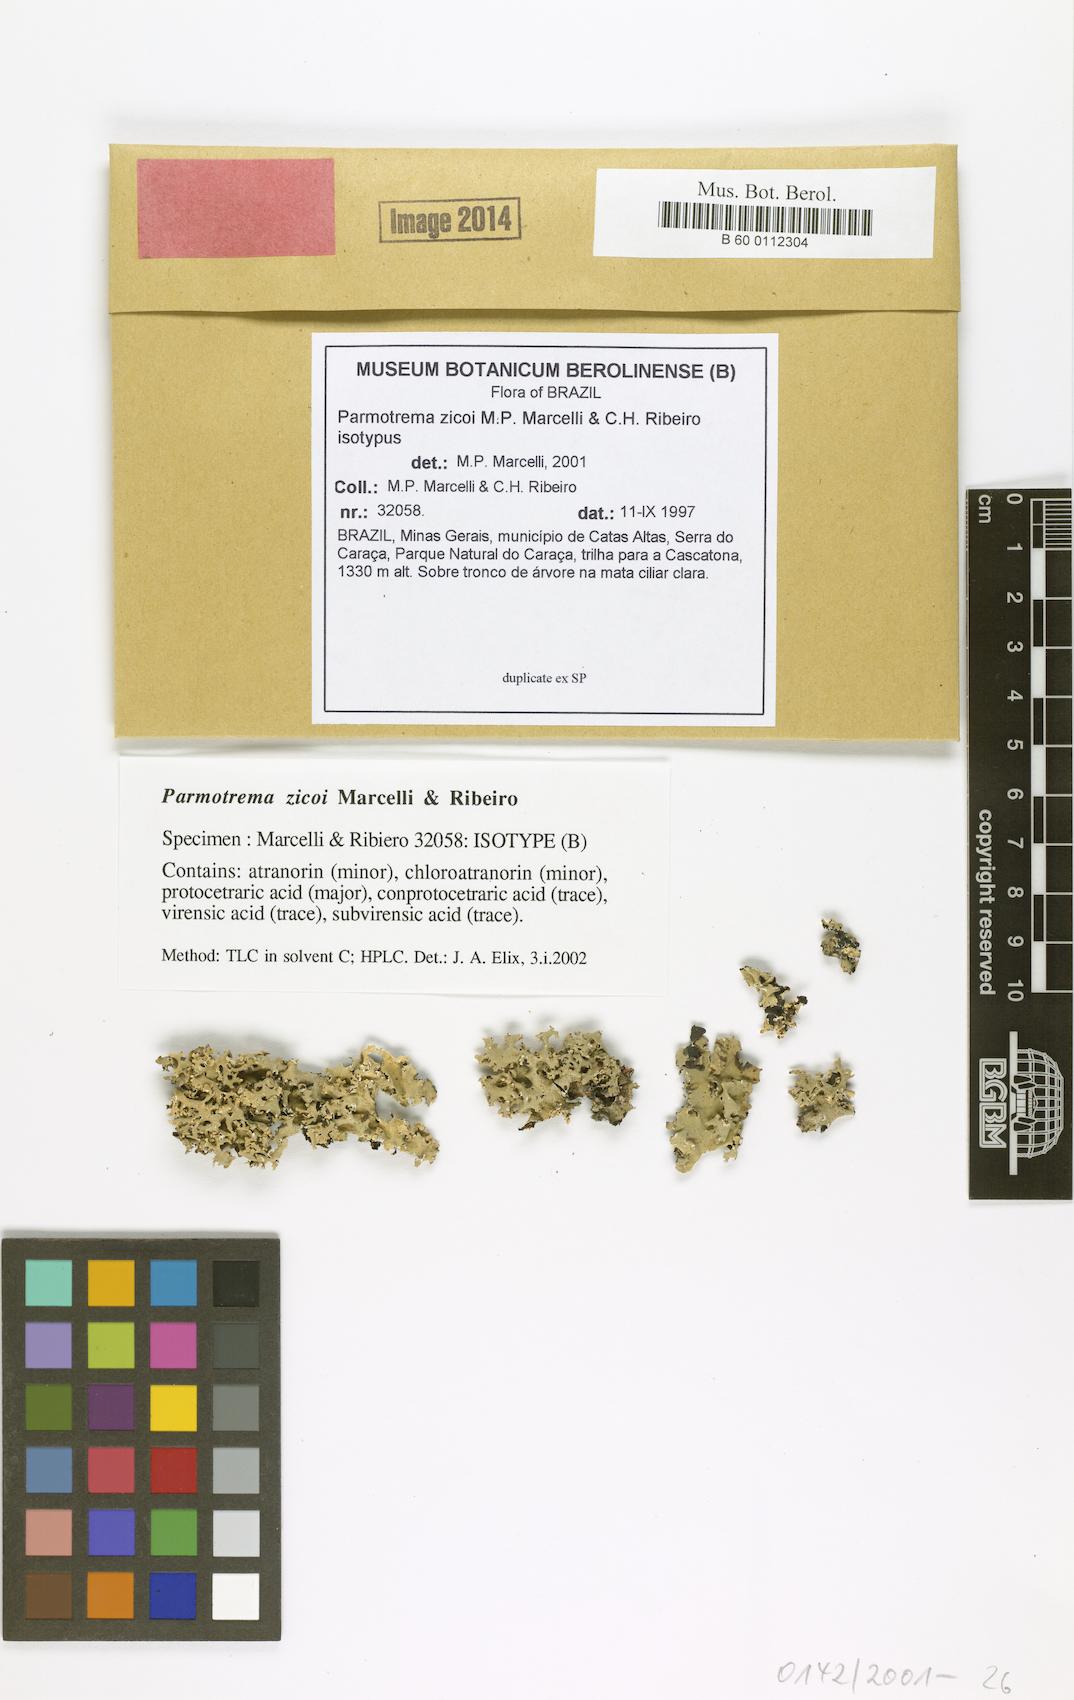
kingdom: Fungi
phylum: Ascomycota
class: Lecanoromycetes
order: Lecanorales
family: Parmeliaceae
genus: Parmotrema
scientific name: Parmotrema zicoi
